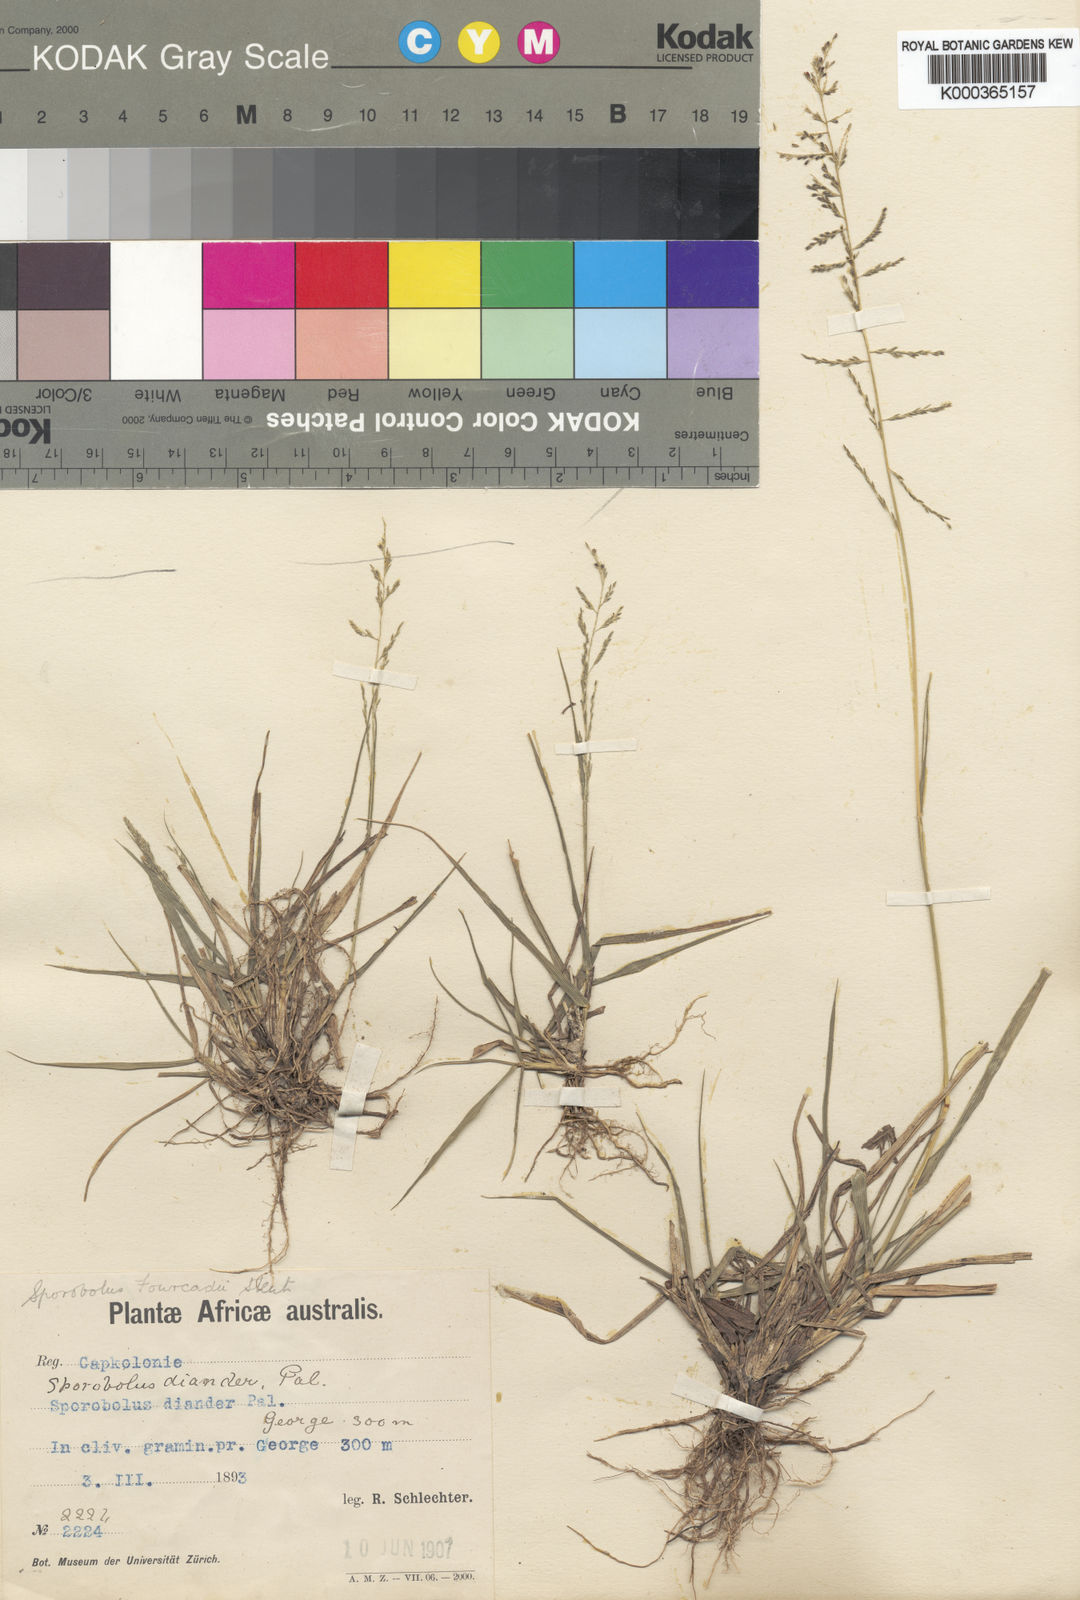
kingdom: Plantae
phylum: Tracheophyta
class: Liliopsida
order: Poales
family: Poaceae
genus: Sporobolus
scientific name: Sporobolus fourcadei
